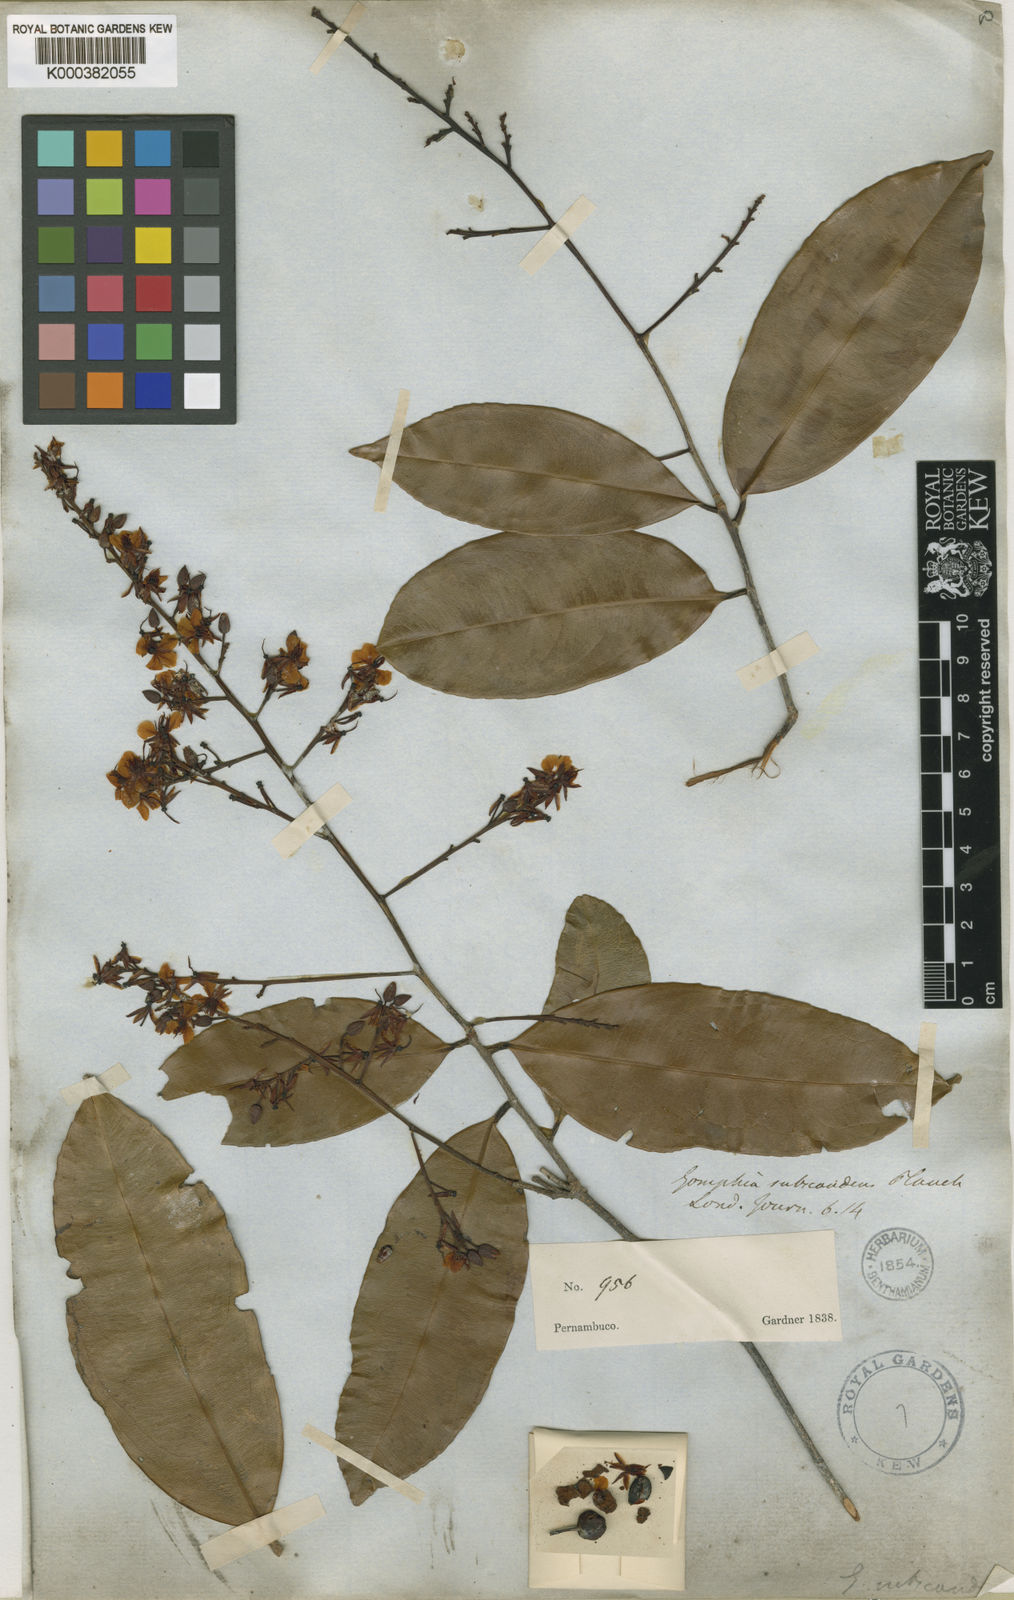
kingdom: Plantae
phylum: Tracheophyta
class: Magnoliopsida
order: Malpighiales
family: Ochnaceae
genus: Ouratea
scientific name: Ouratea subscandens
